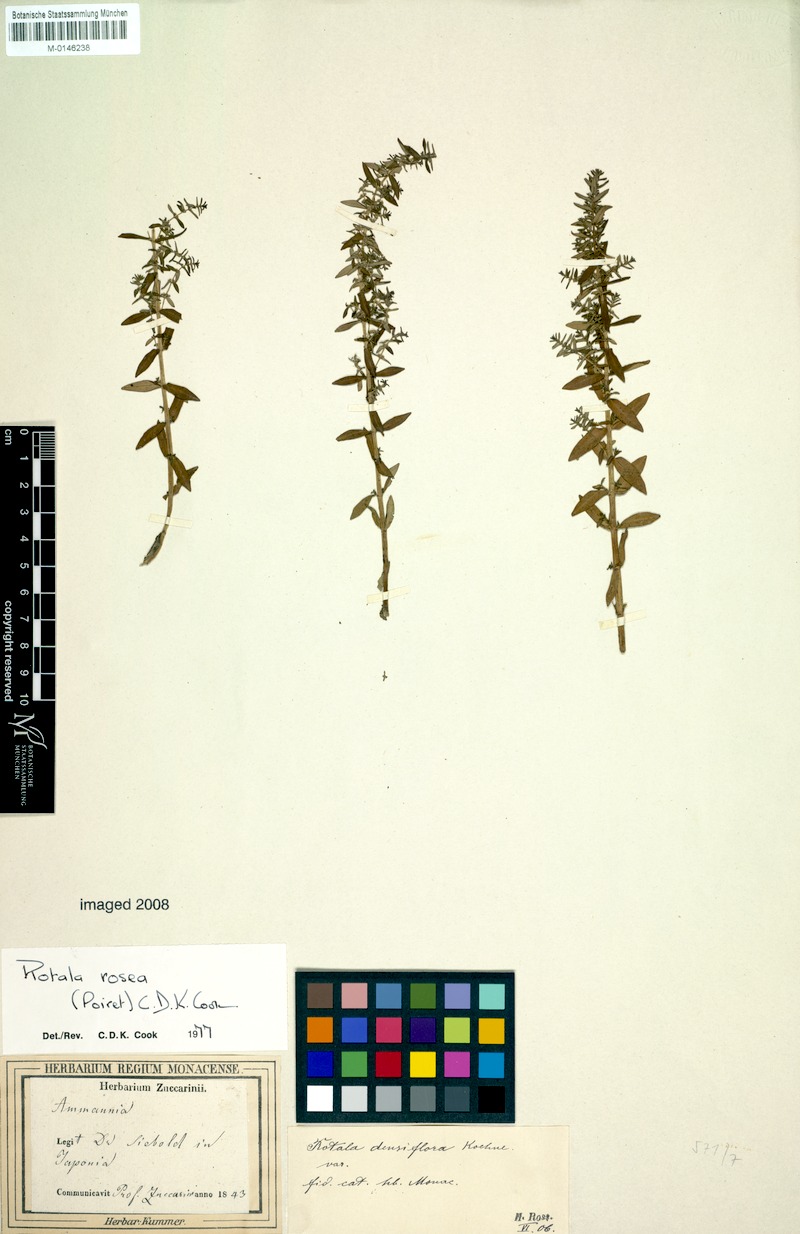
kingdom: Plantae
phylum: Tracheophyta
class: Magnoliopsida
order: Myrtales
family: Lythraceae
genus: Rotala
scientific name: Rotala rosea
